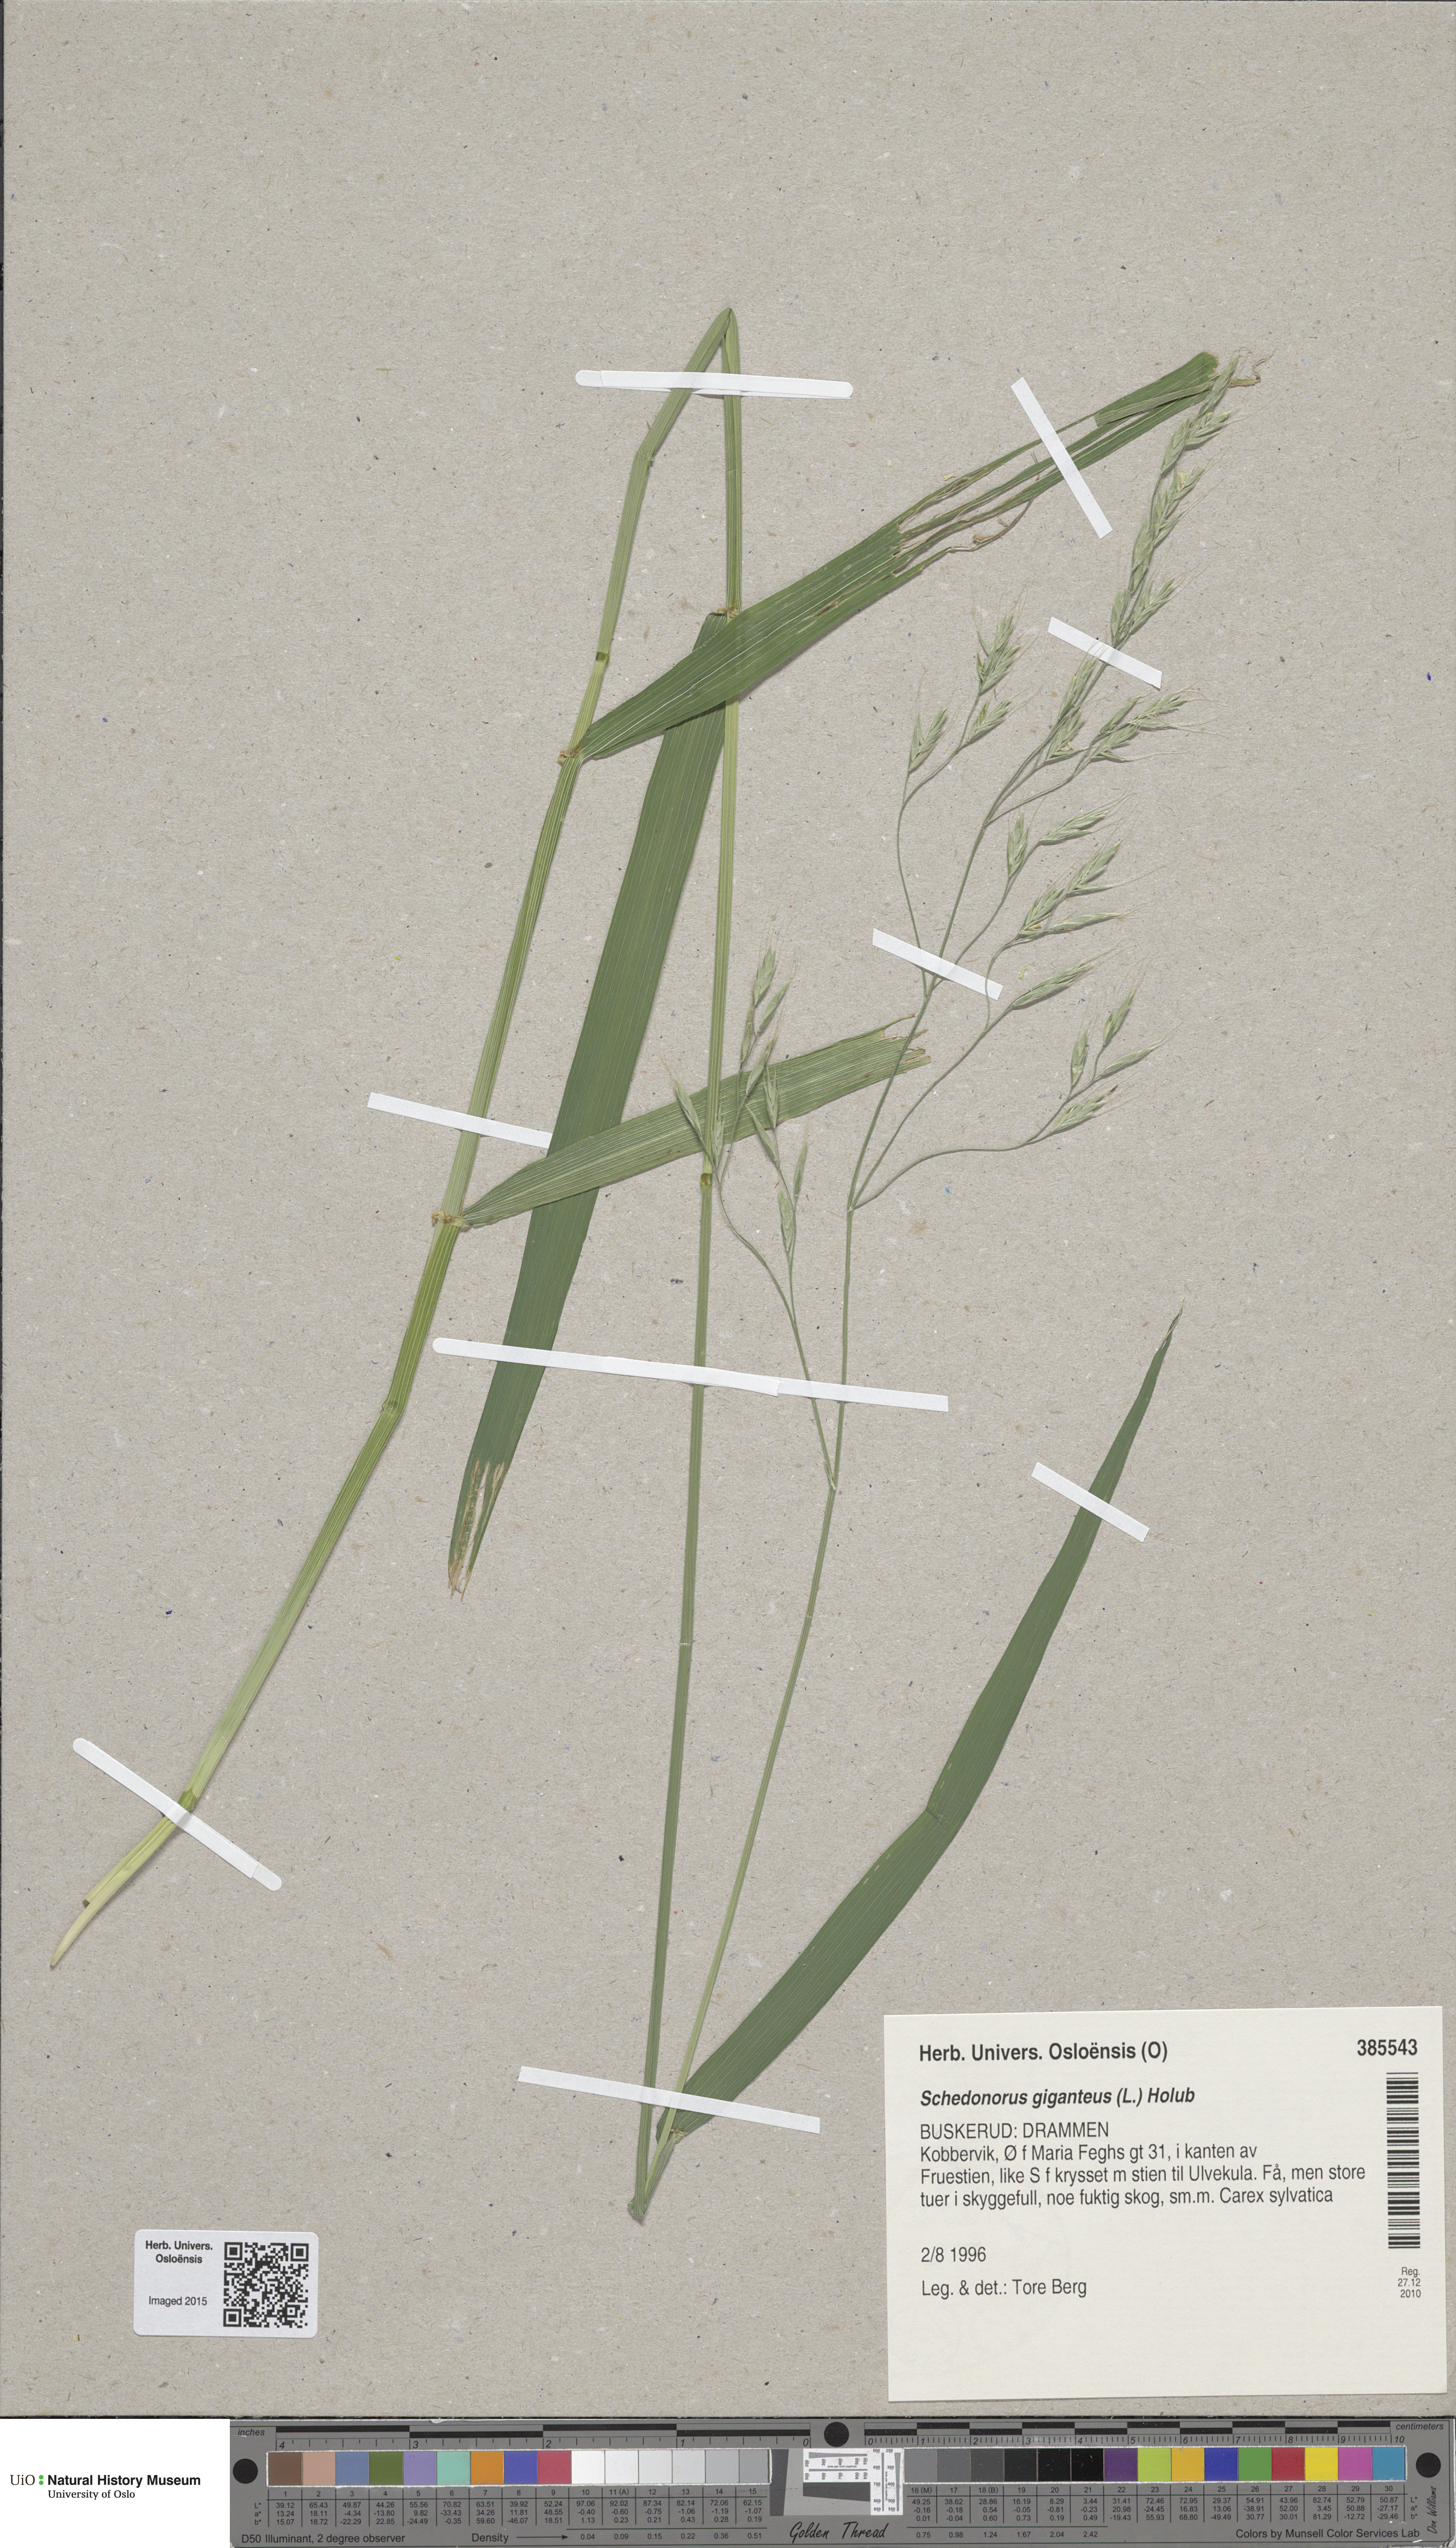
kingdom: Plantae
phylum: Tracheophyta
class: Liliopsida
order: Poales
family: Poaceae
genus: Lolium
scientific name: Lolium giganteum
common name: Giant fescue
